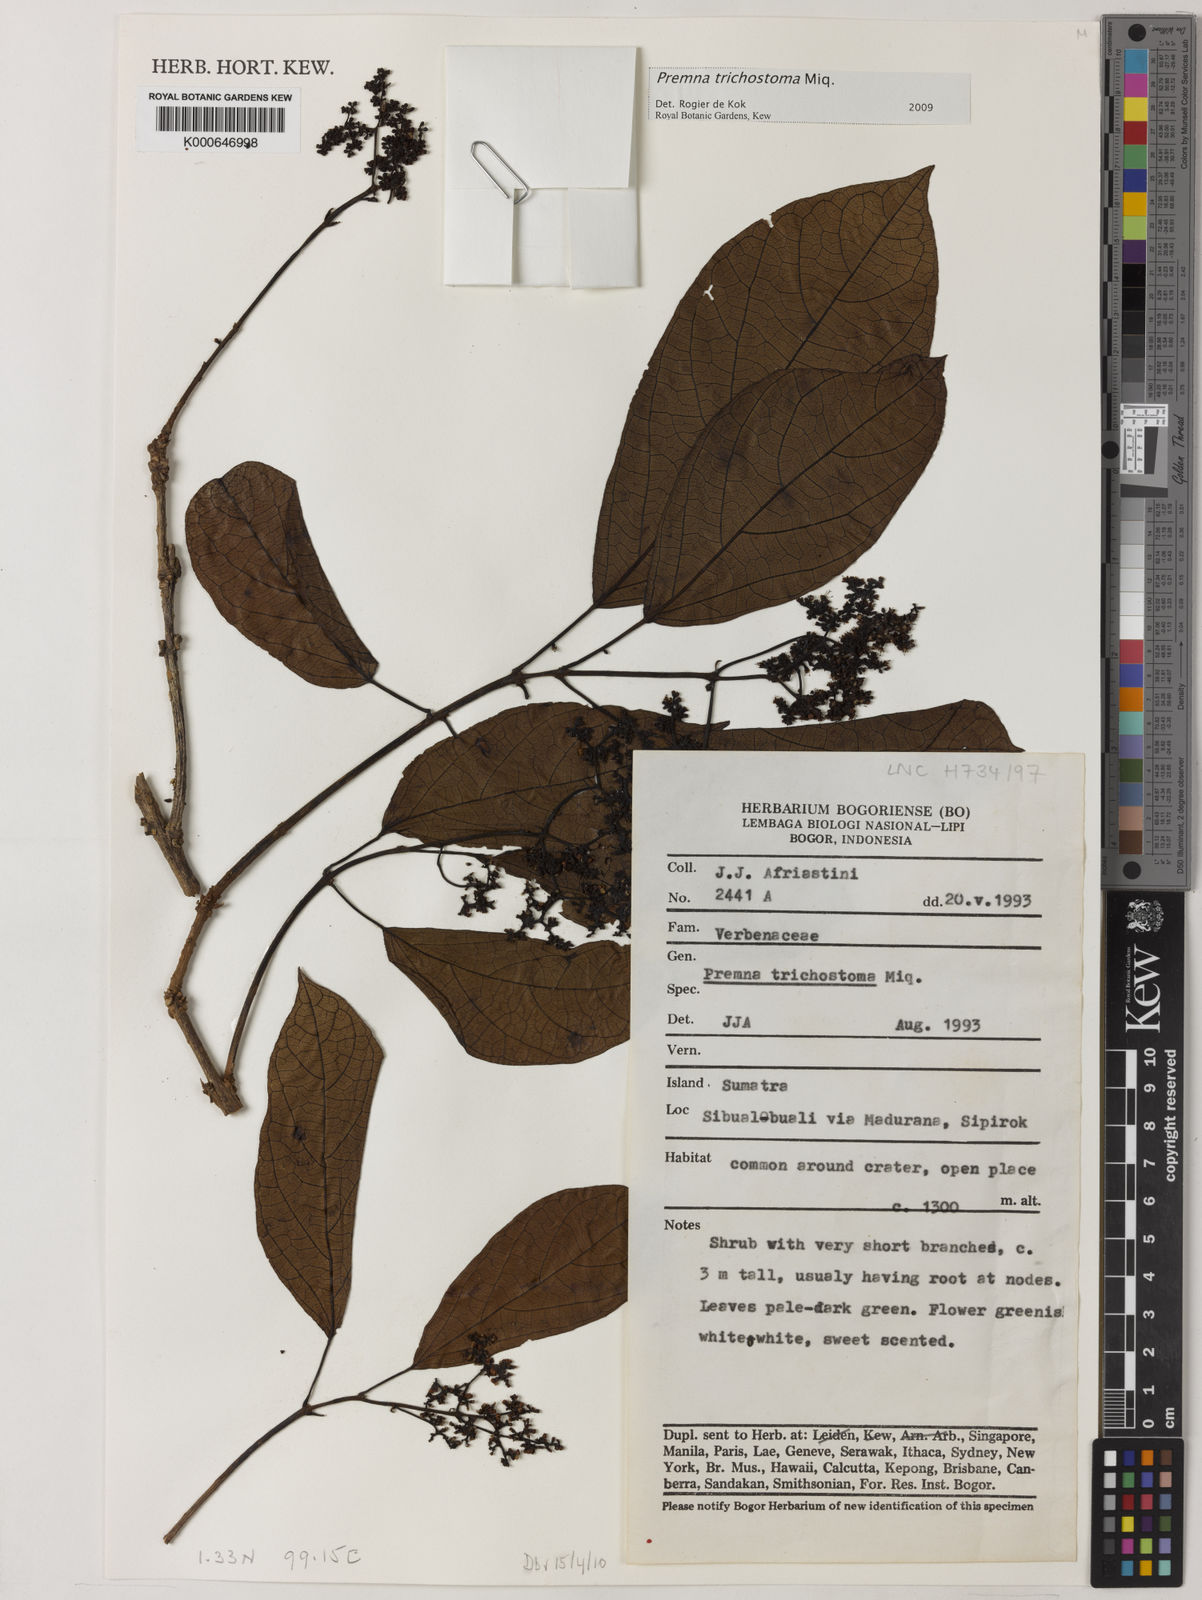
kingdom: Plantae
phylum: Tracheophyta
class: Magnoliopsida
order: Lamiales
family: Lamiaceae
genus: Premna
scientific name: Premna trichostoma
